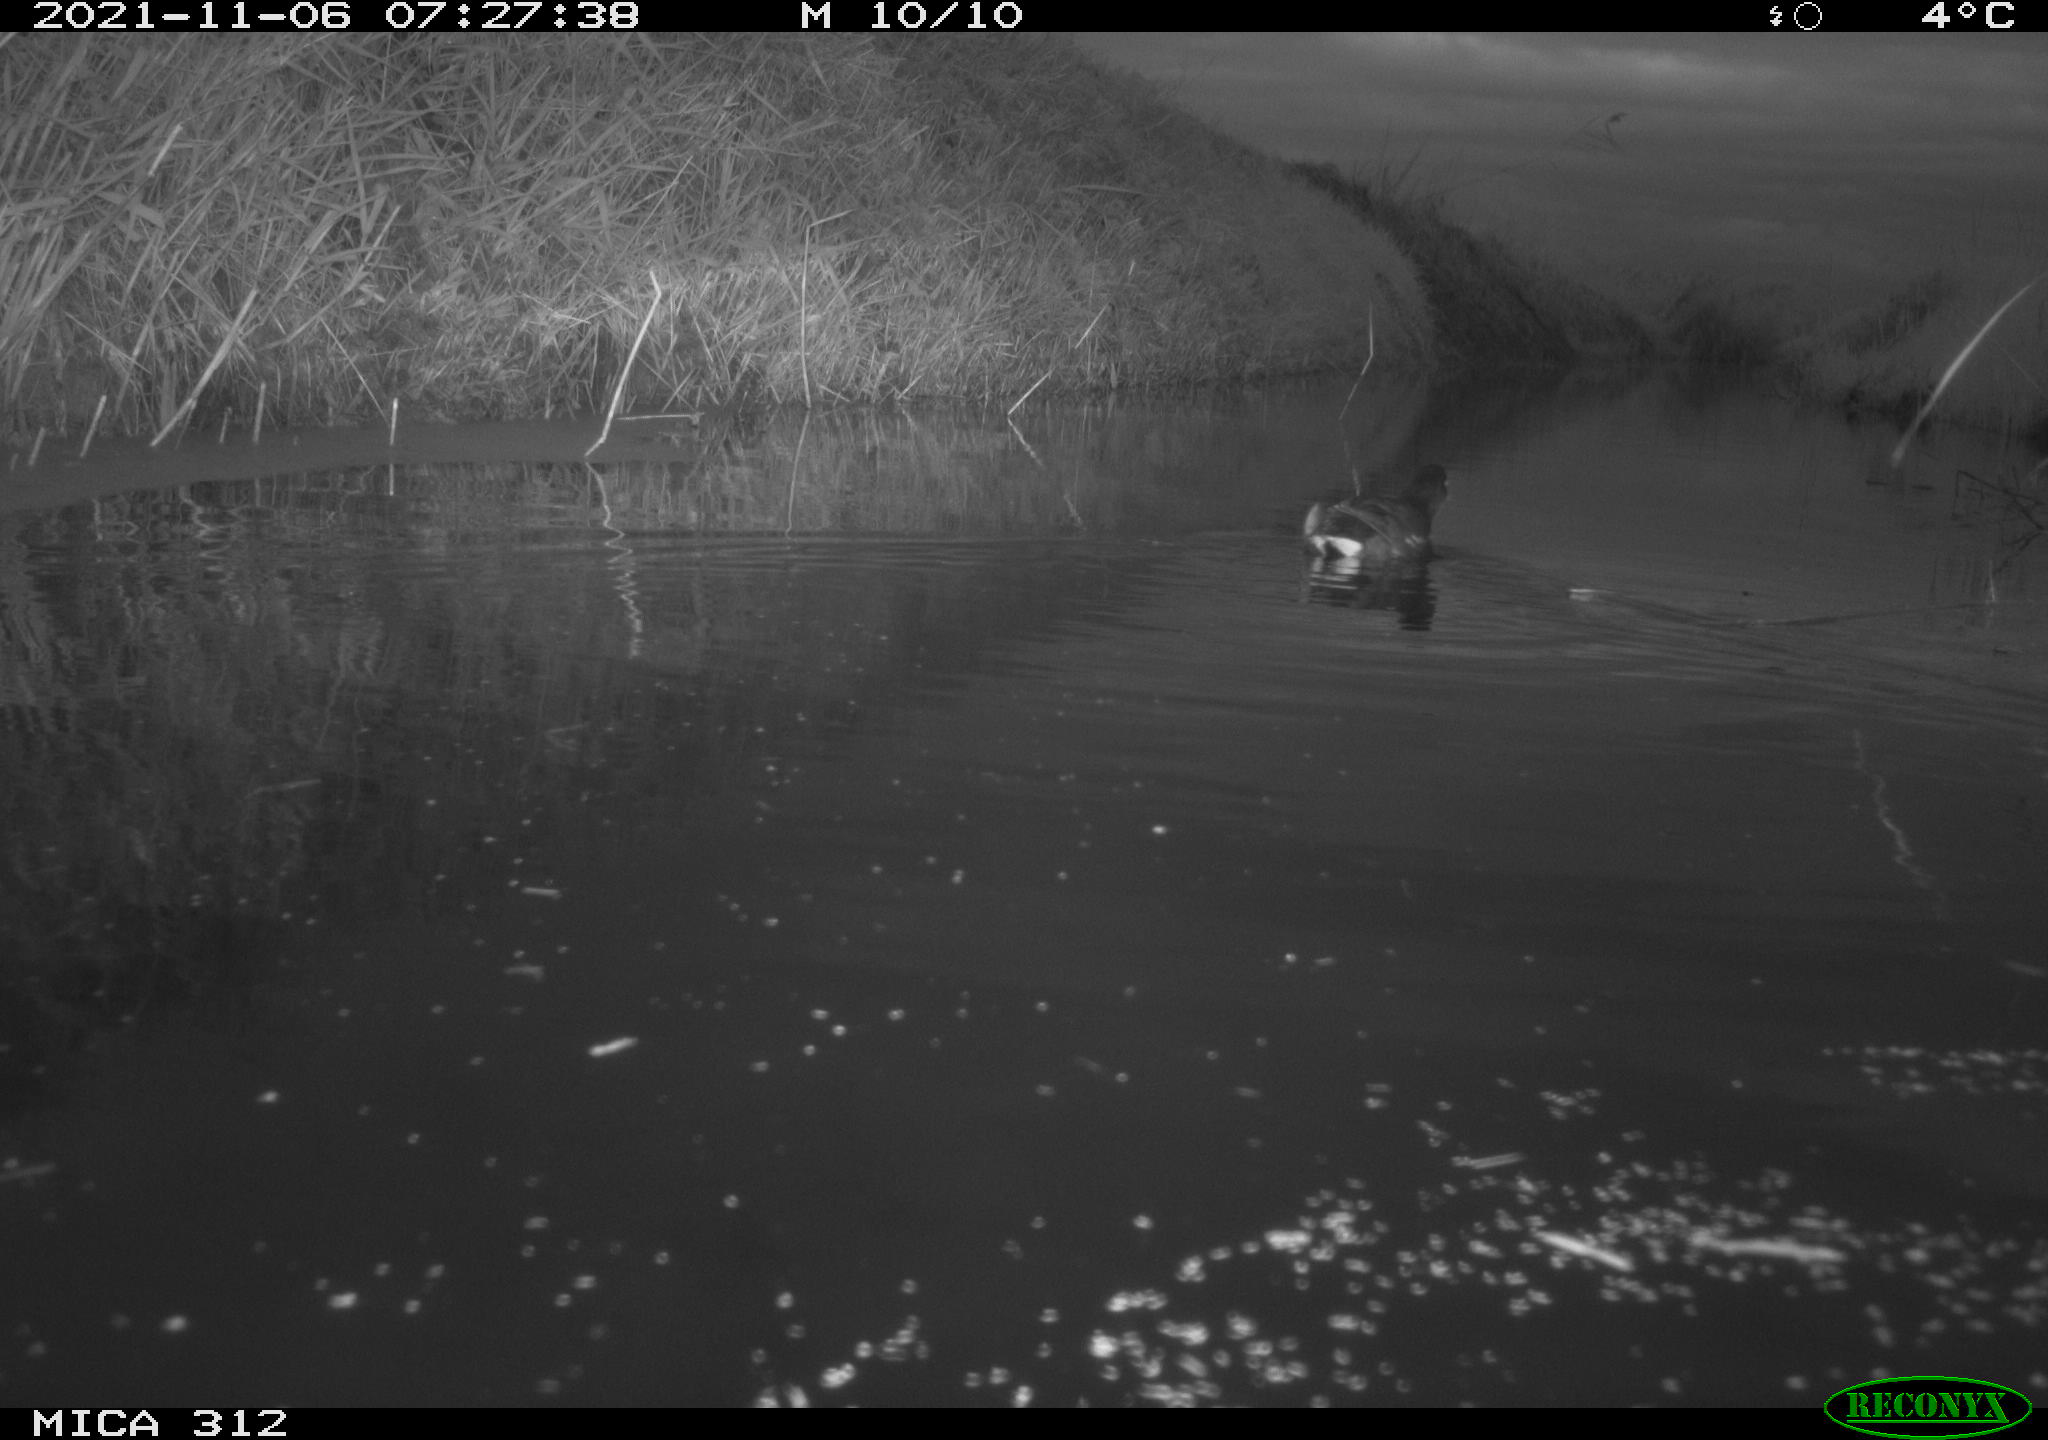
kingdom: Animalia
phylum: Chordata
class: Aves
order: Anseriformes
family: Anatidae
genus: Anas
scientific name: Anas
